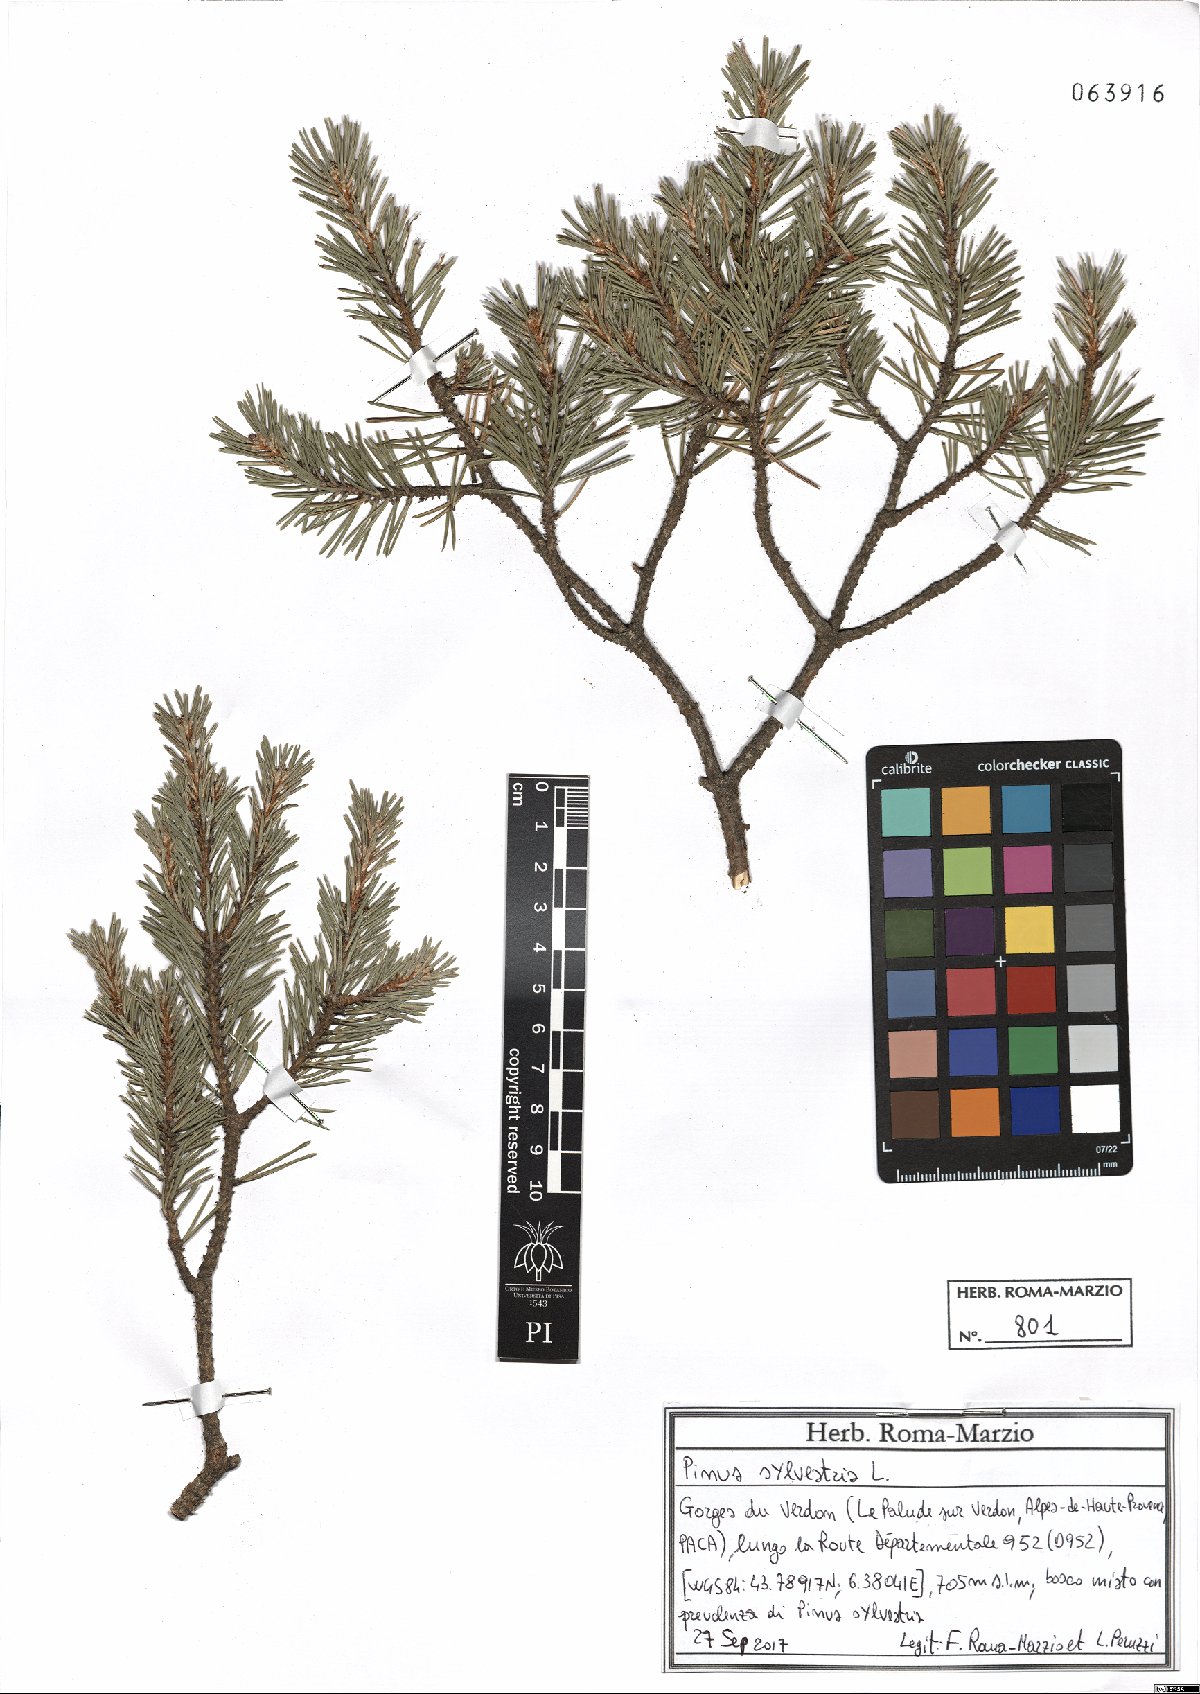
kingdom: Plantae
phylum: Tracheophyta
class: Pinopsida
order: Pinales
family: Pinaceae
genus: Pinus
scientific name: Pinus sylvestris
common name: Scots pine
